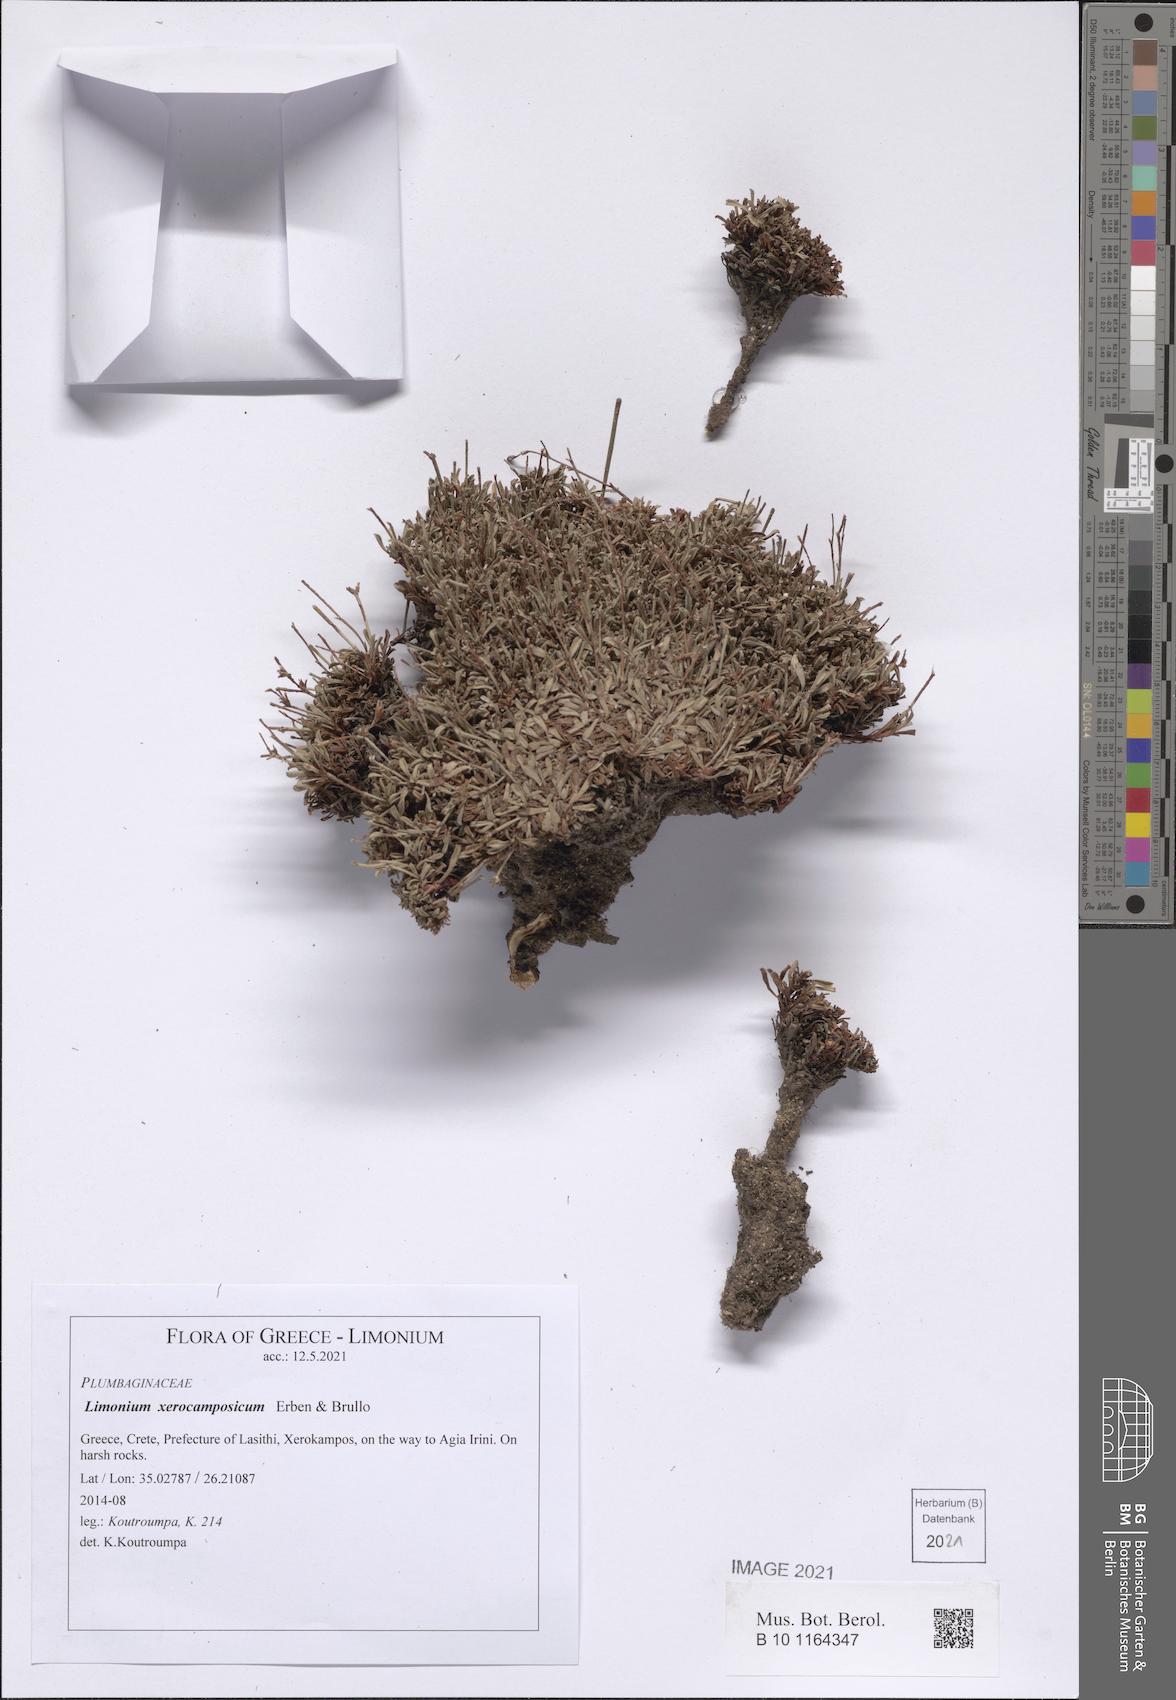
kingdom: Plantae
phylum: Tracheophyta
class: Magnoliopsida
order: Caryophyllales
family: Plumbaginaceae
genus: Limonium
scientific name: Limonium xerocamposicum
